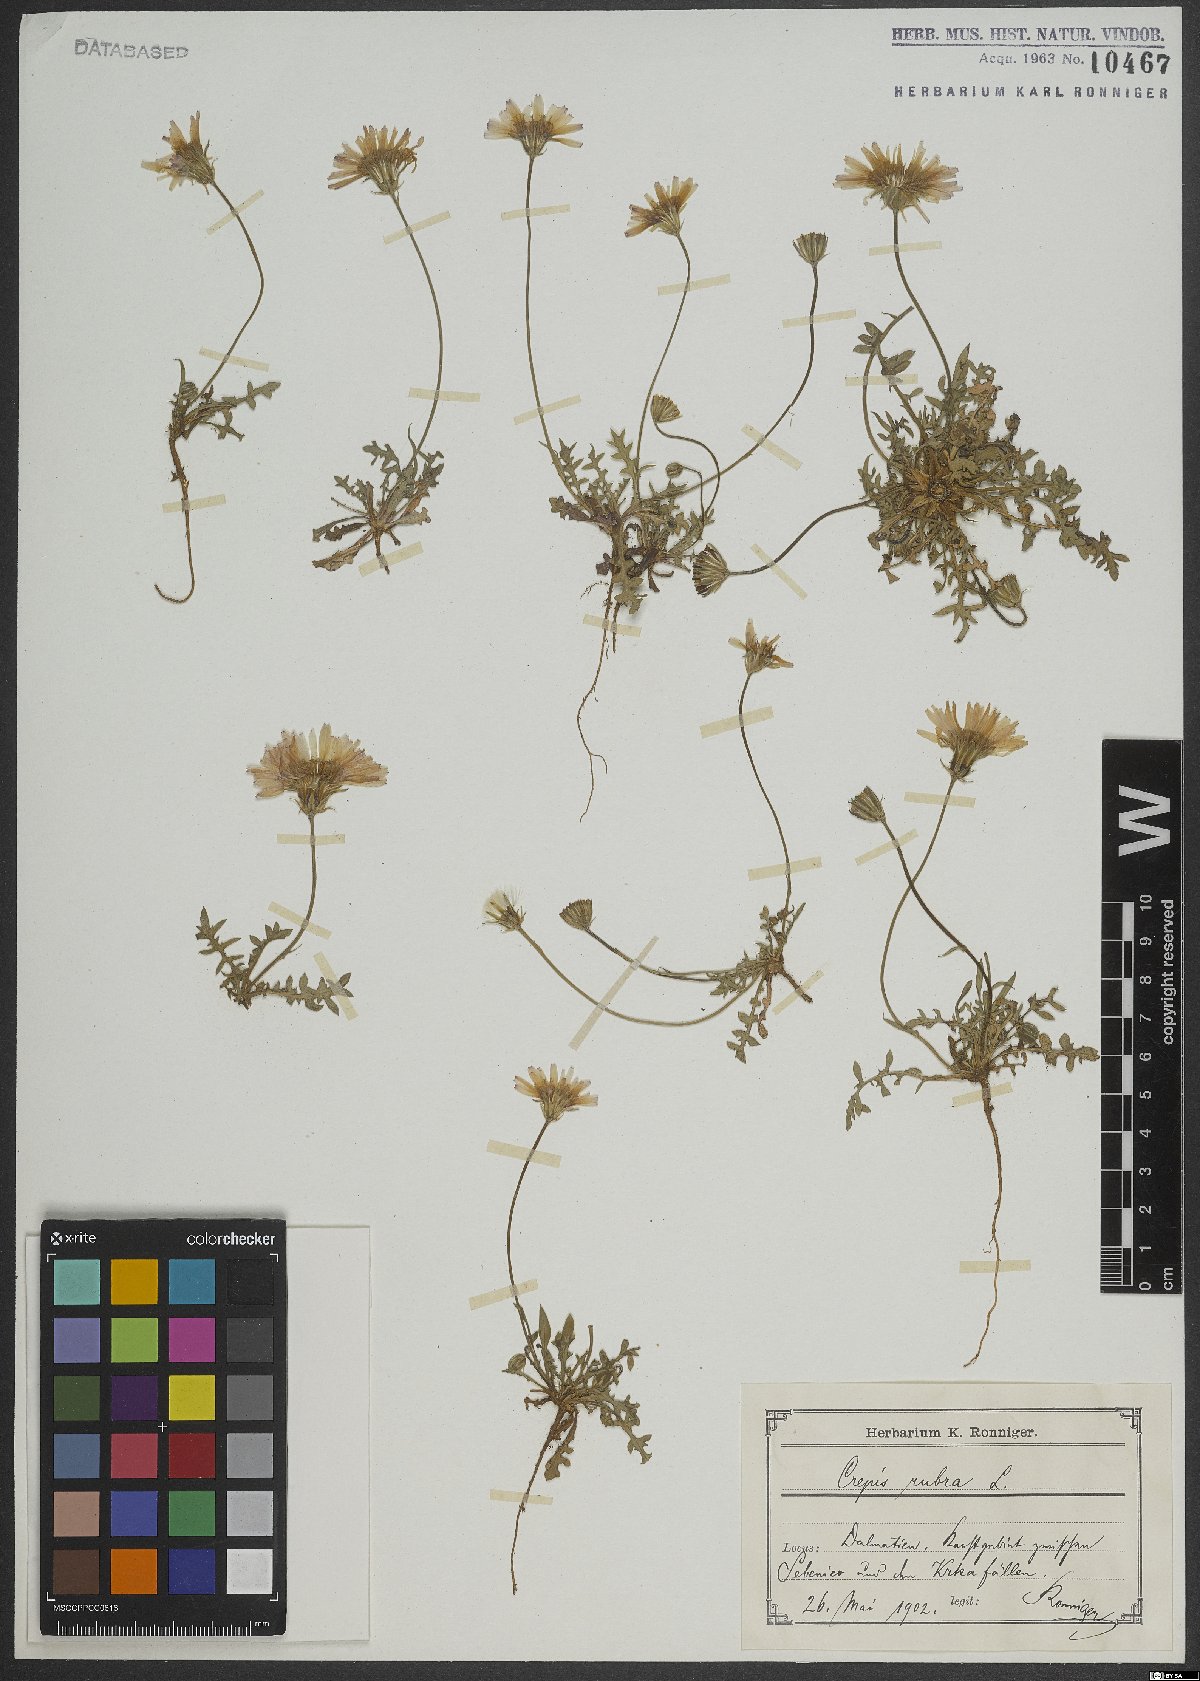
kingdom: Plantae
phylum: Tracheophyta
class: Magnoliopsida
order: Asterales
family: Asteraceae
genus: Crepis
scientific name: Crepis rubra
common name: Pink hawk's-beard
